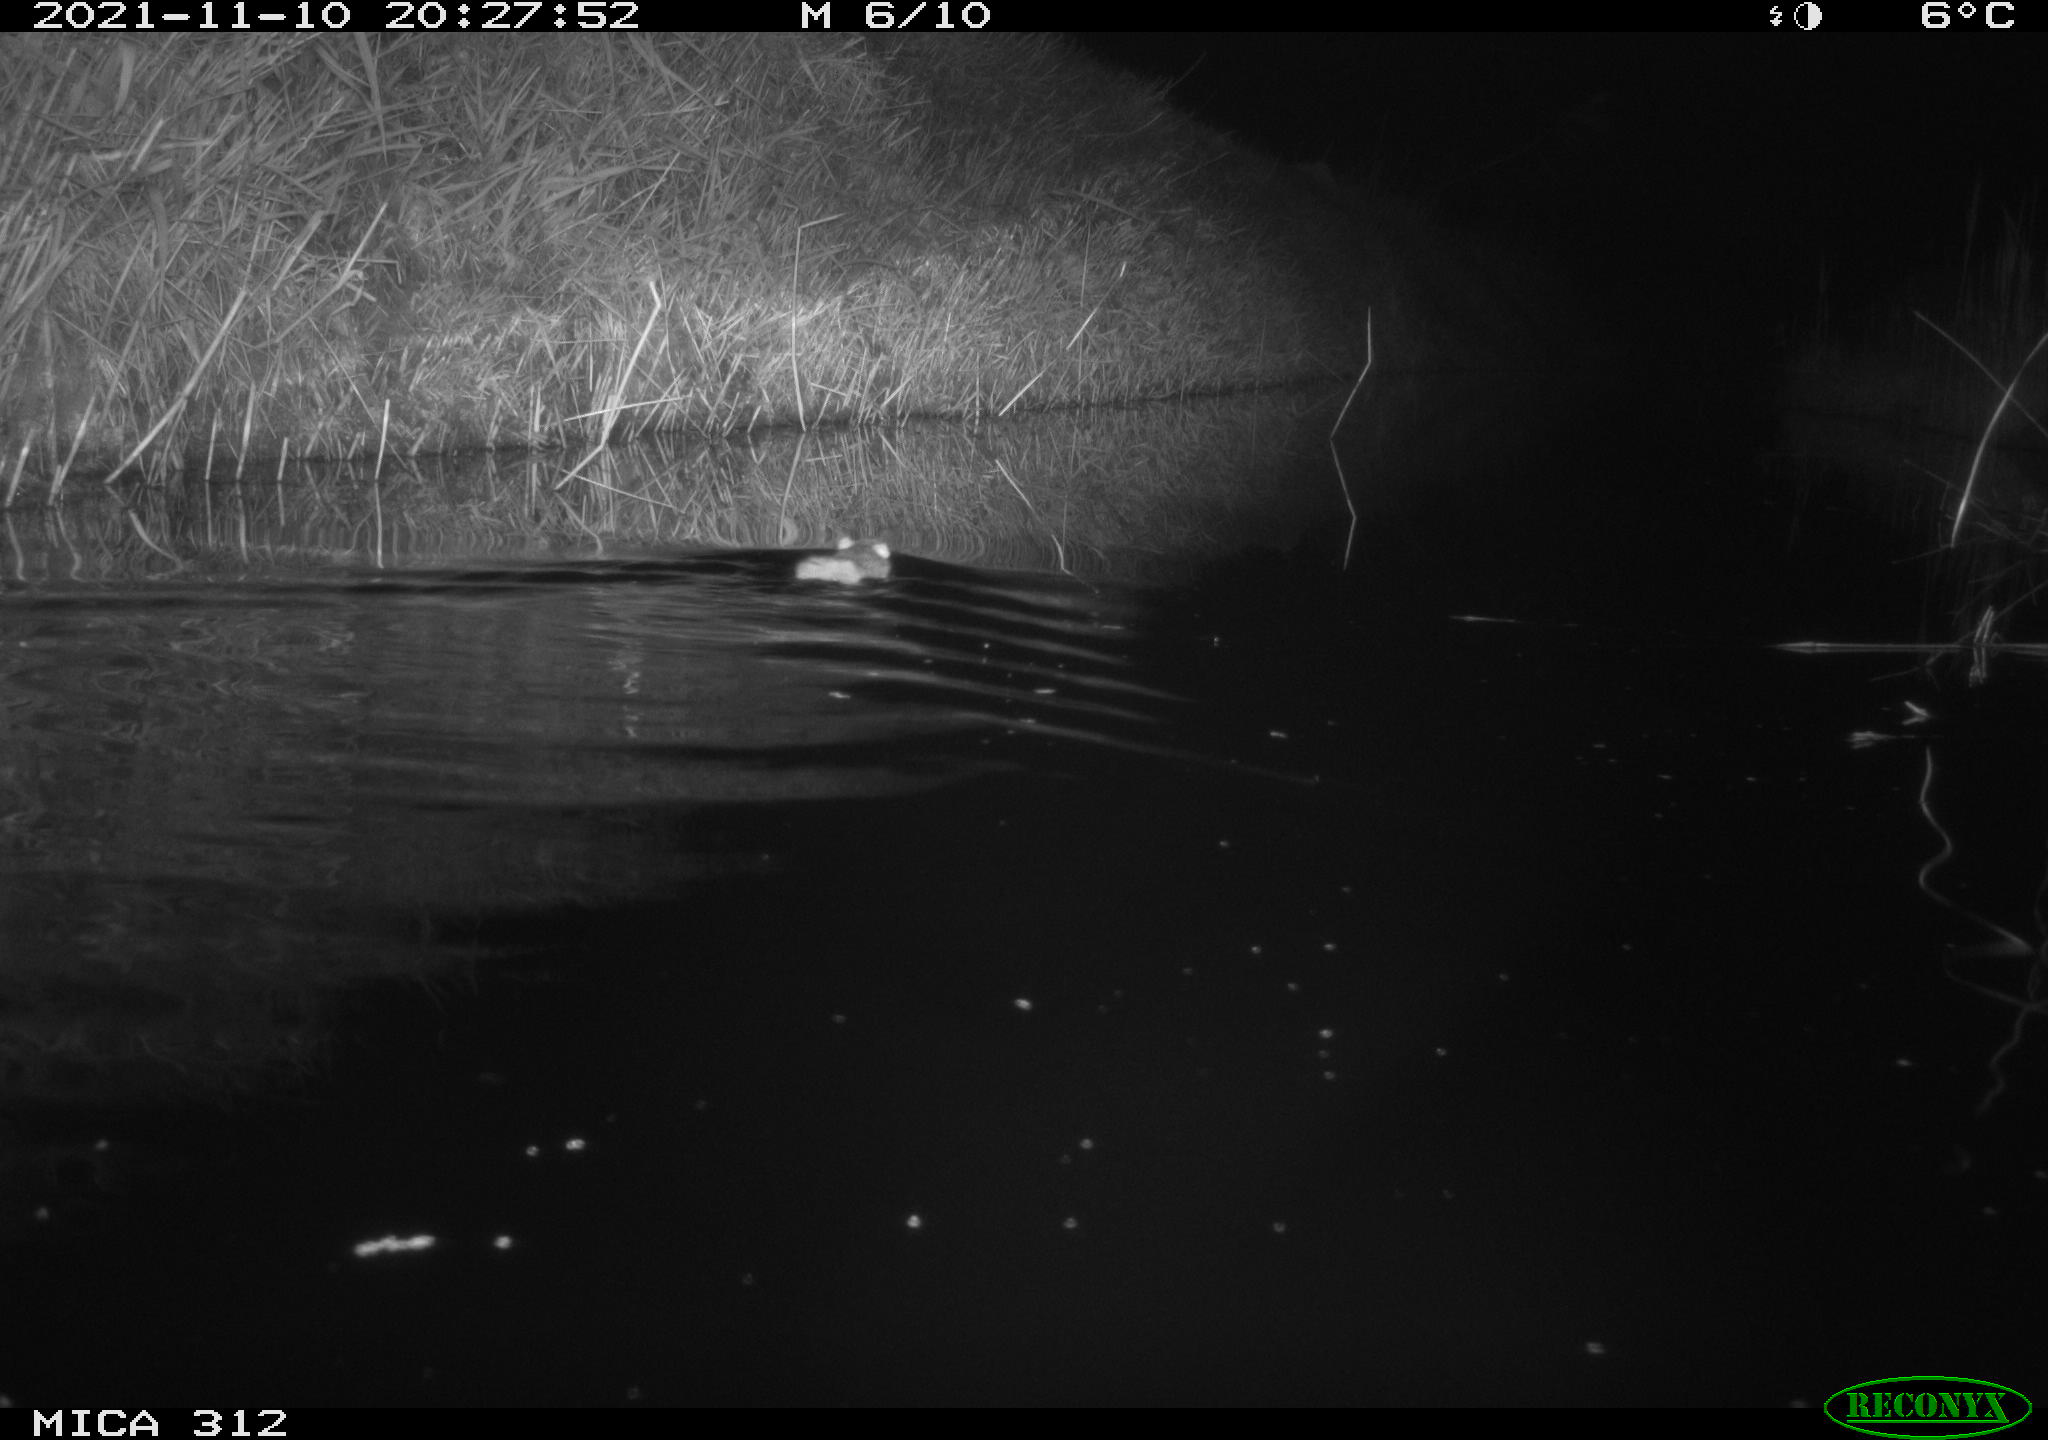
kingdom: Animalia
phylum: Chordata
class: Mammalia
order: Rodentia
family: Muridae
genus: Rattus
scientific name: Rattus norvegicus
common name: Brown rat
